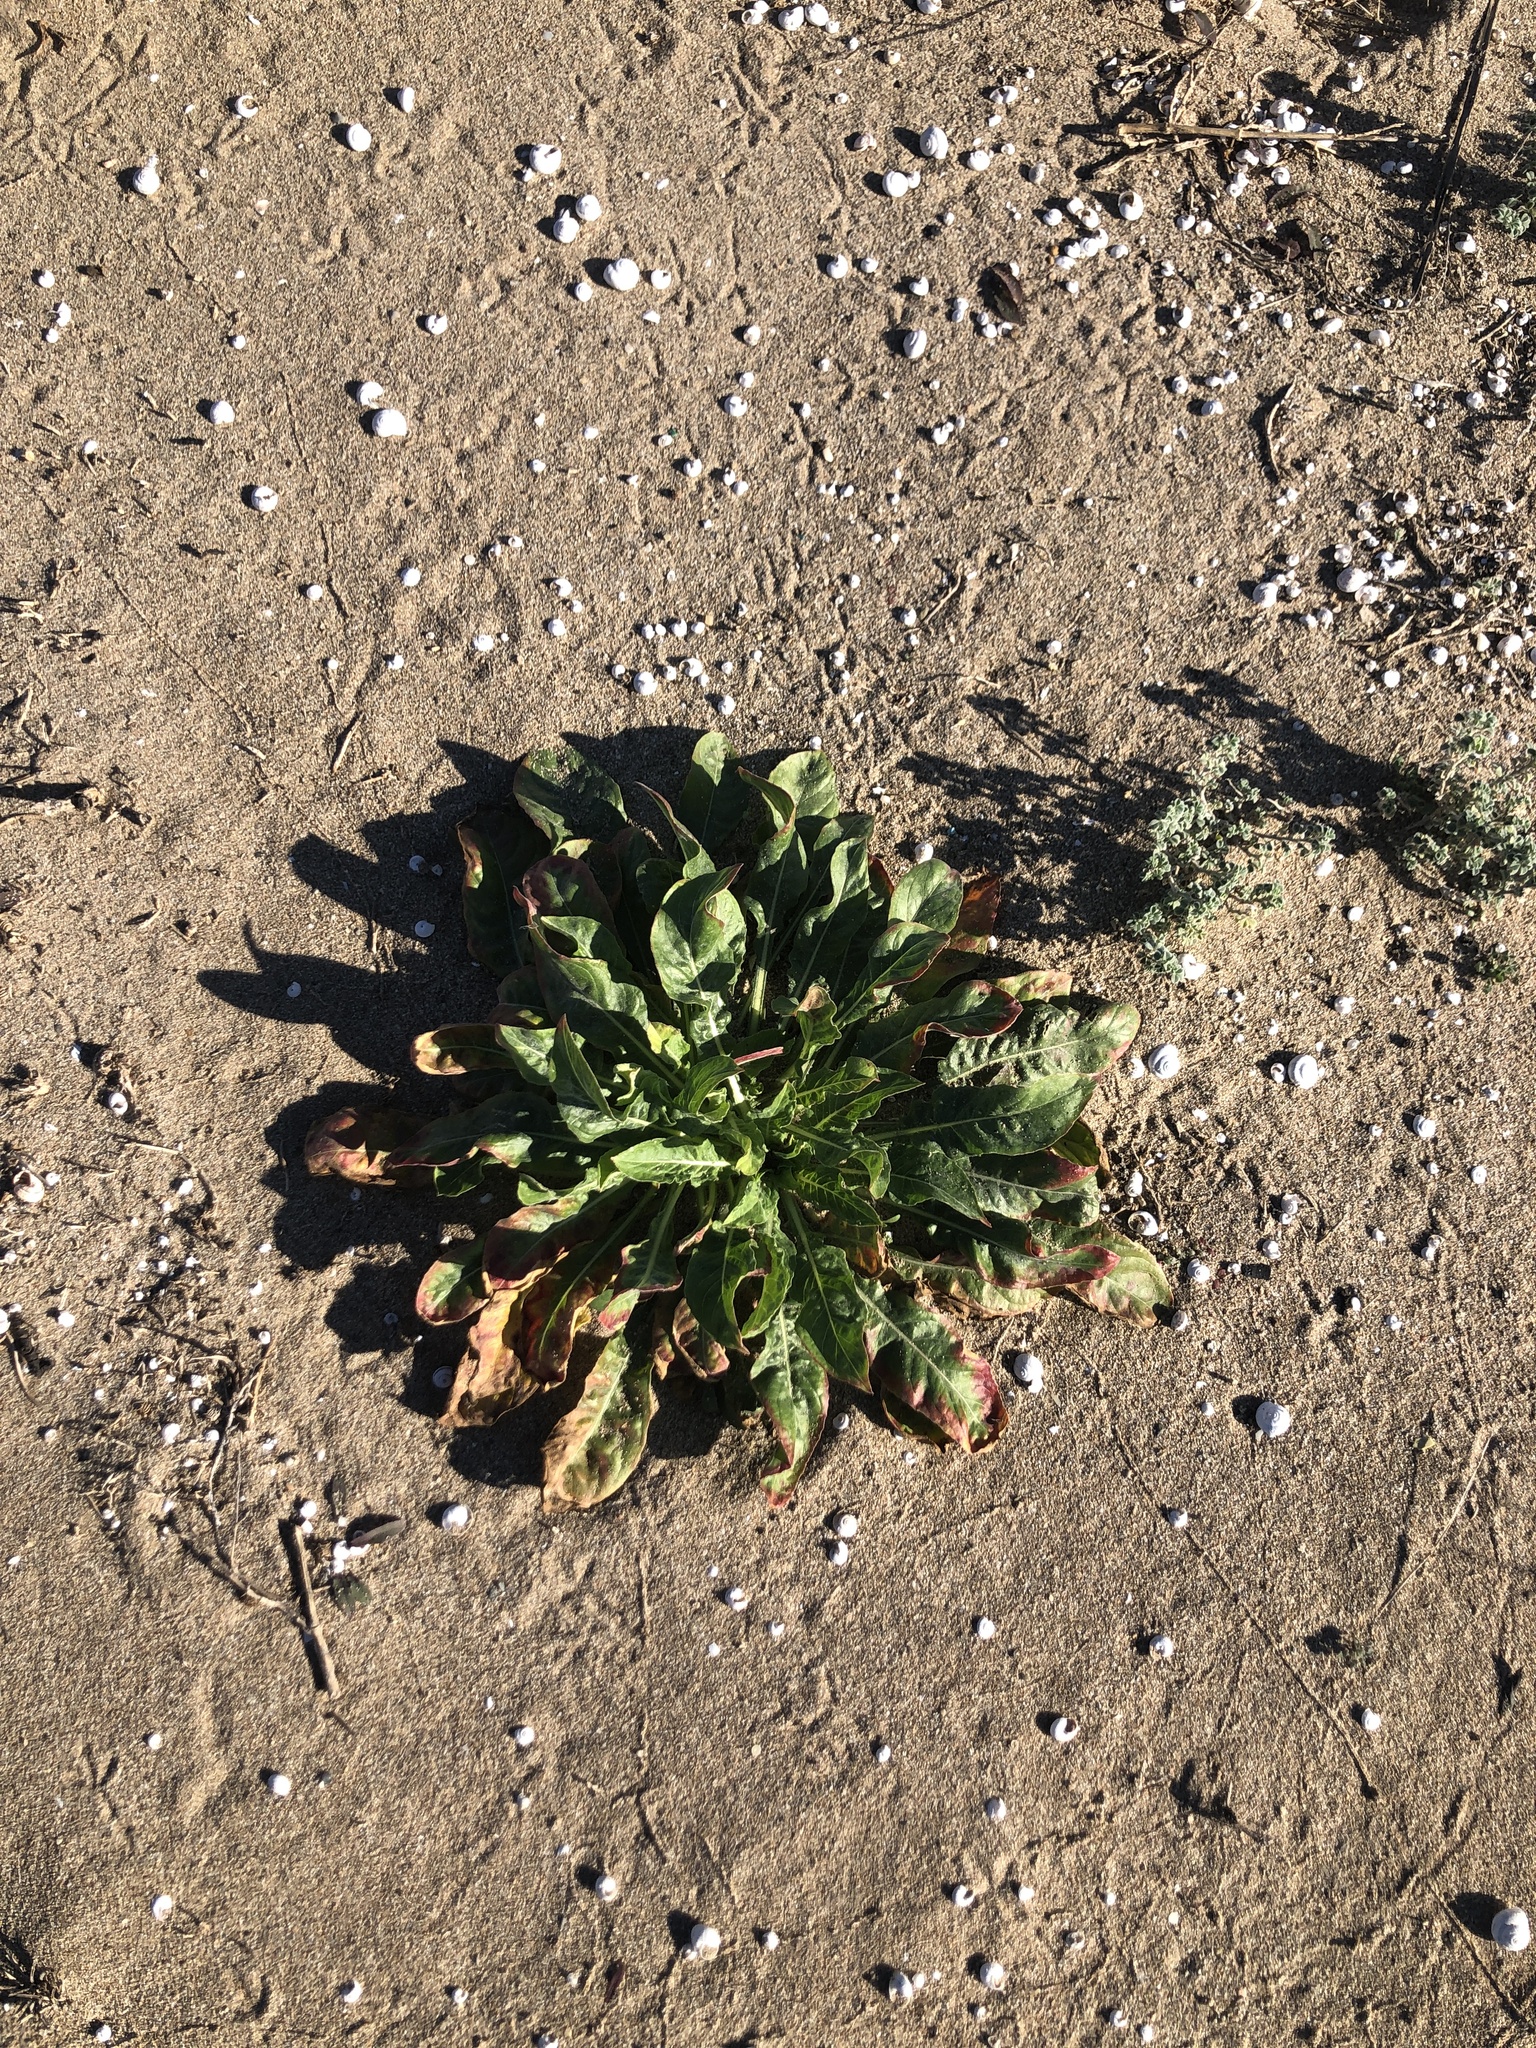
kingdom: Plantae
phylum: Tracheophyta
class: Magnoliopsida
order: Myrtales
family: Onagraceae
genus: Oenothera
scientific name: Oenothera glazioviana
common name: Large-flowered evening-primrose
